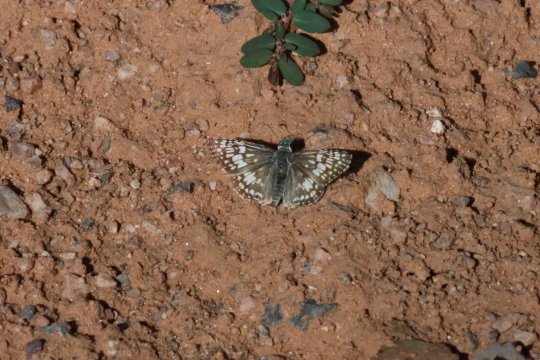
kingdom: Animalia
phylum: Arthropoda
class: Insecta
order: Lepidoptera
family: Hesperiidae
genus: Pyrgus
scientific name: Pyrgus communis
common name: Common Checkered-Skipper
